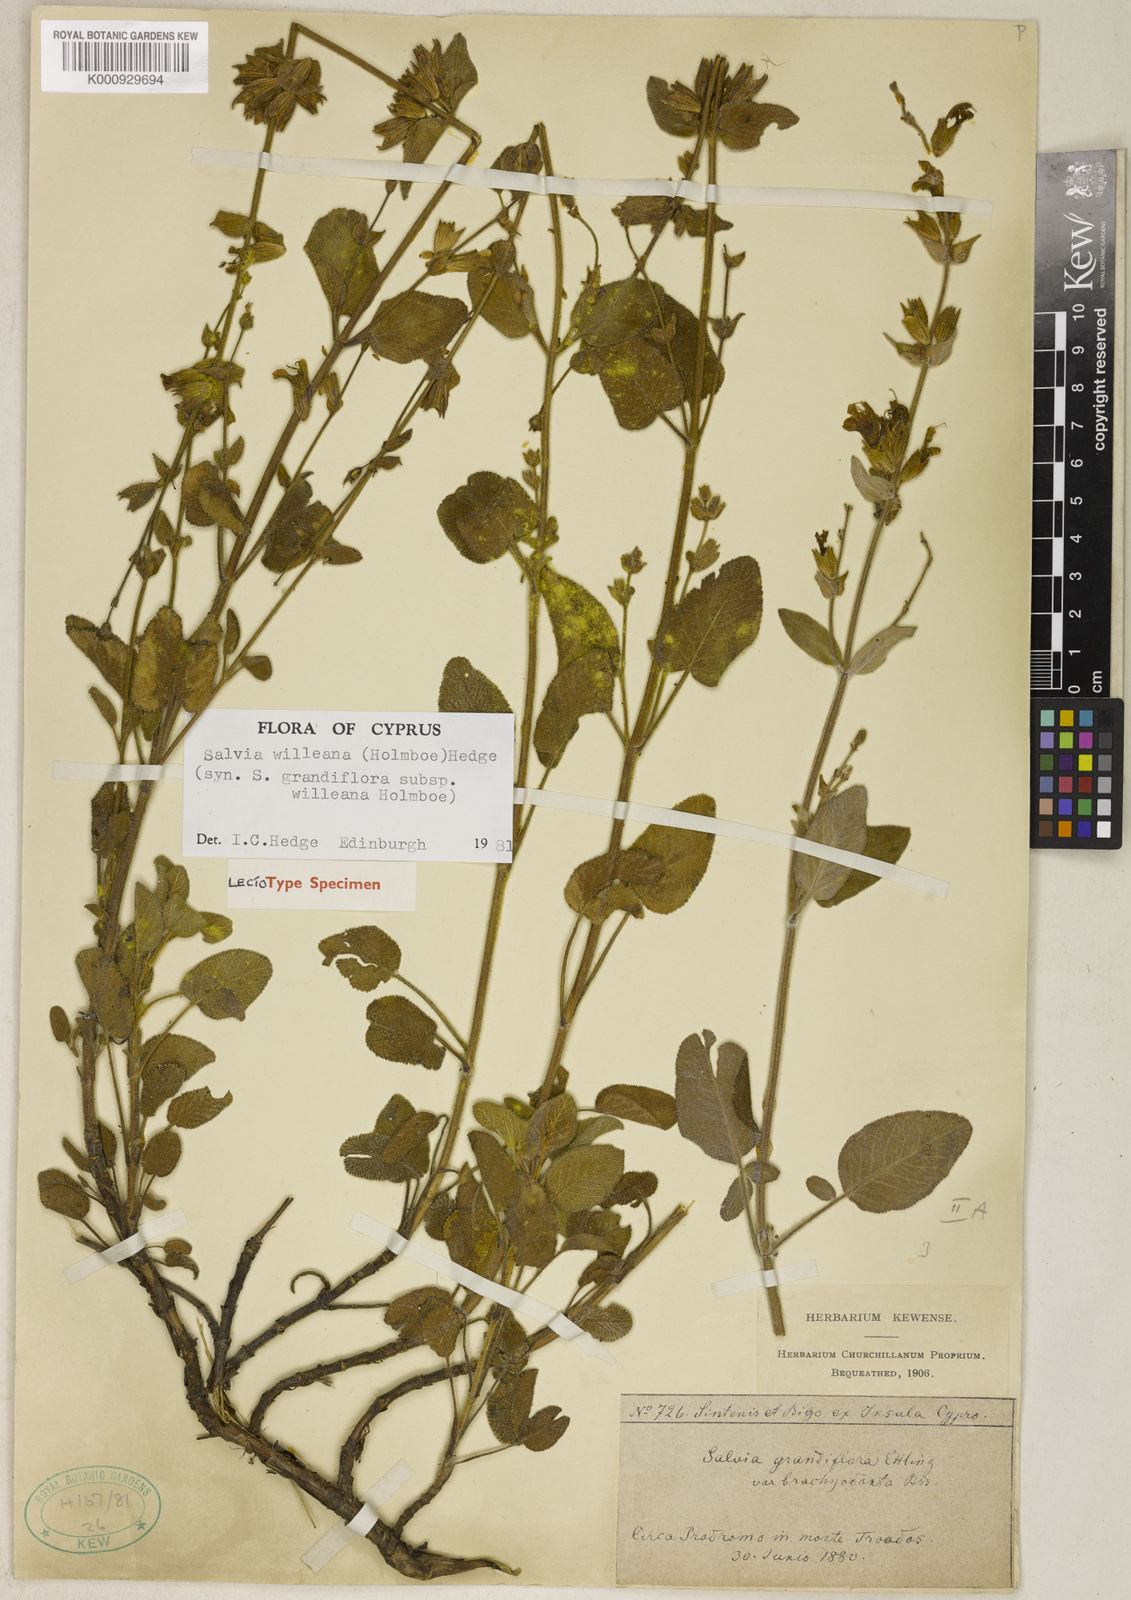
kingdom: Plantae
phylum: Tracheophyta
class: Magnoliopsida
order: Lamiales
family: Lamiaceae
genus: Salvia
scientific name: Salvia willeana
